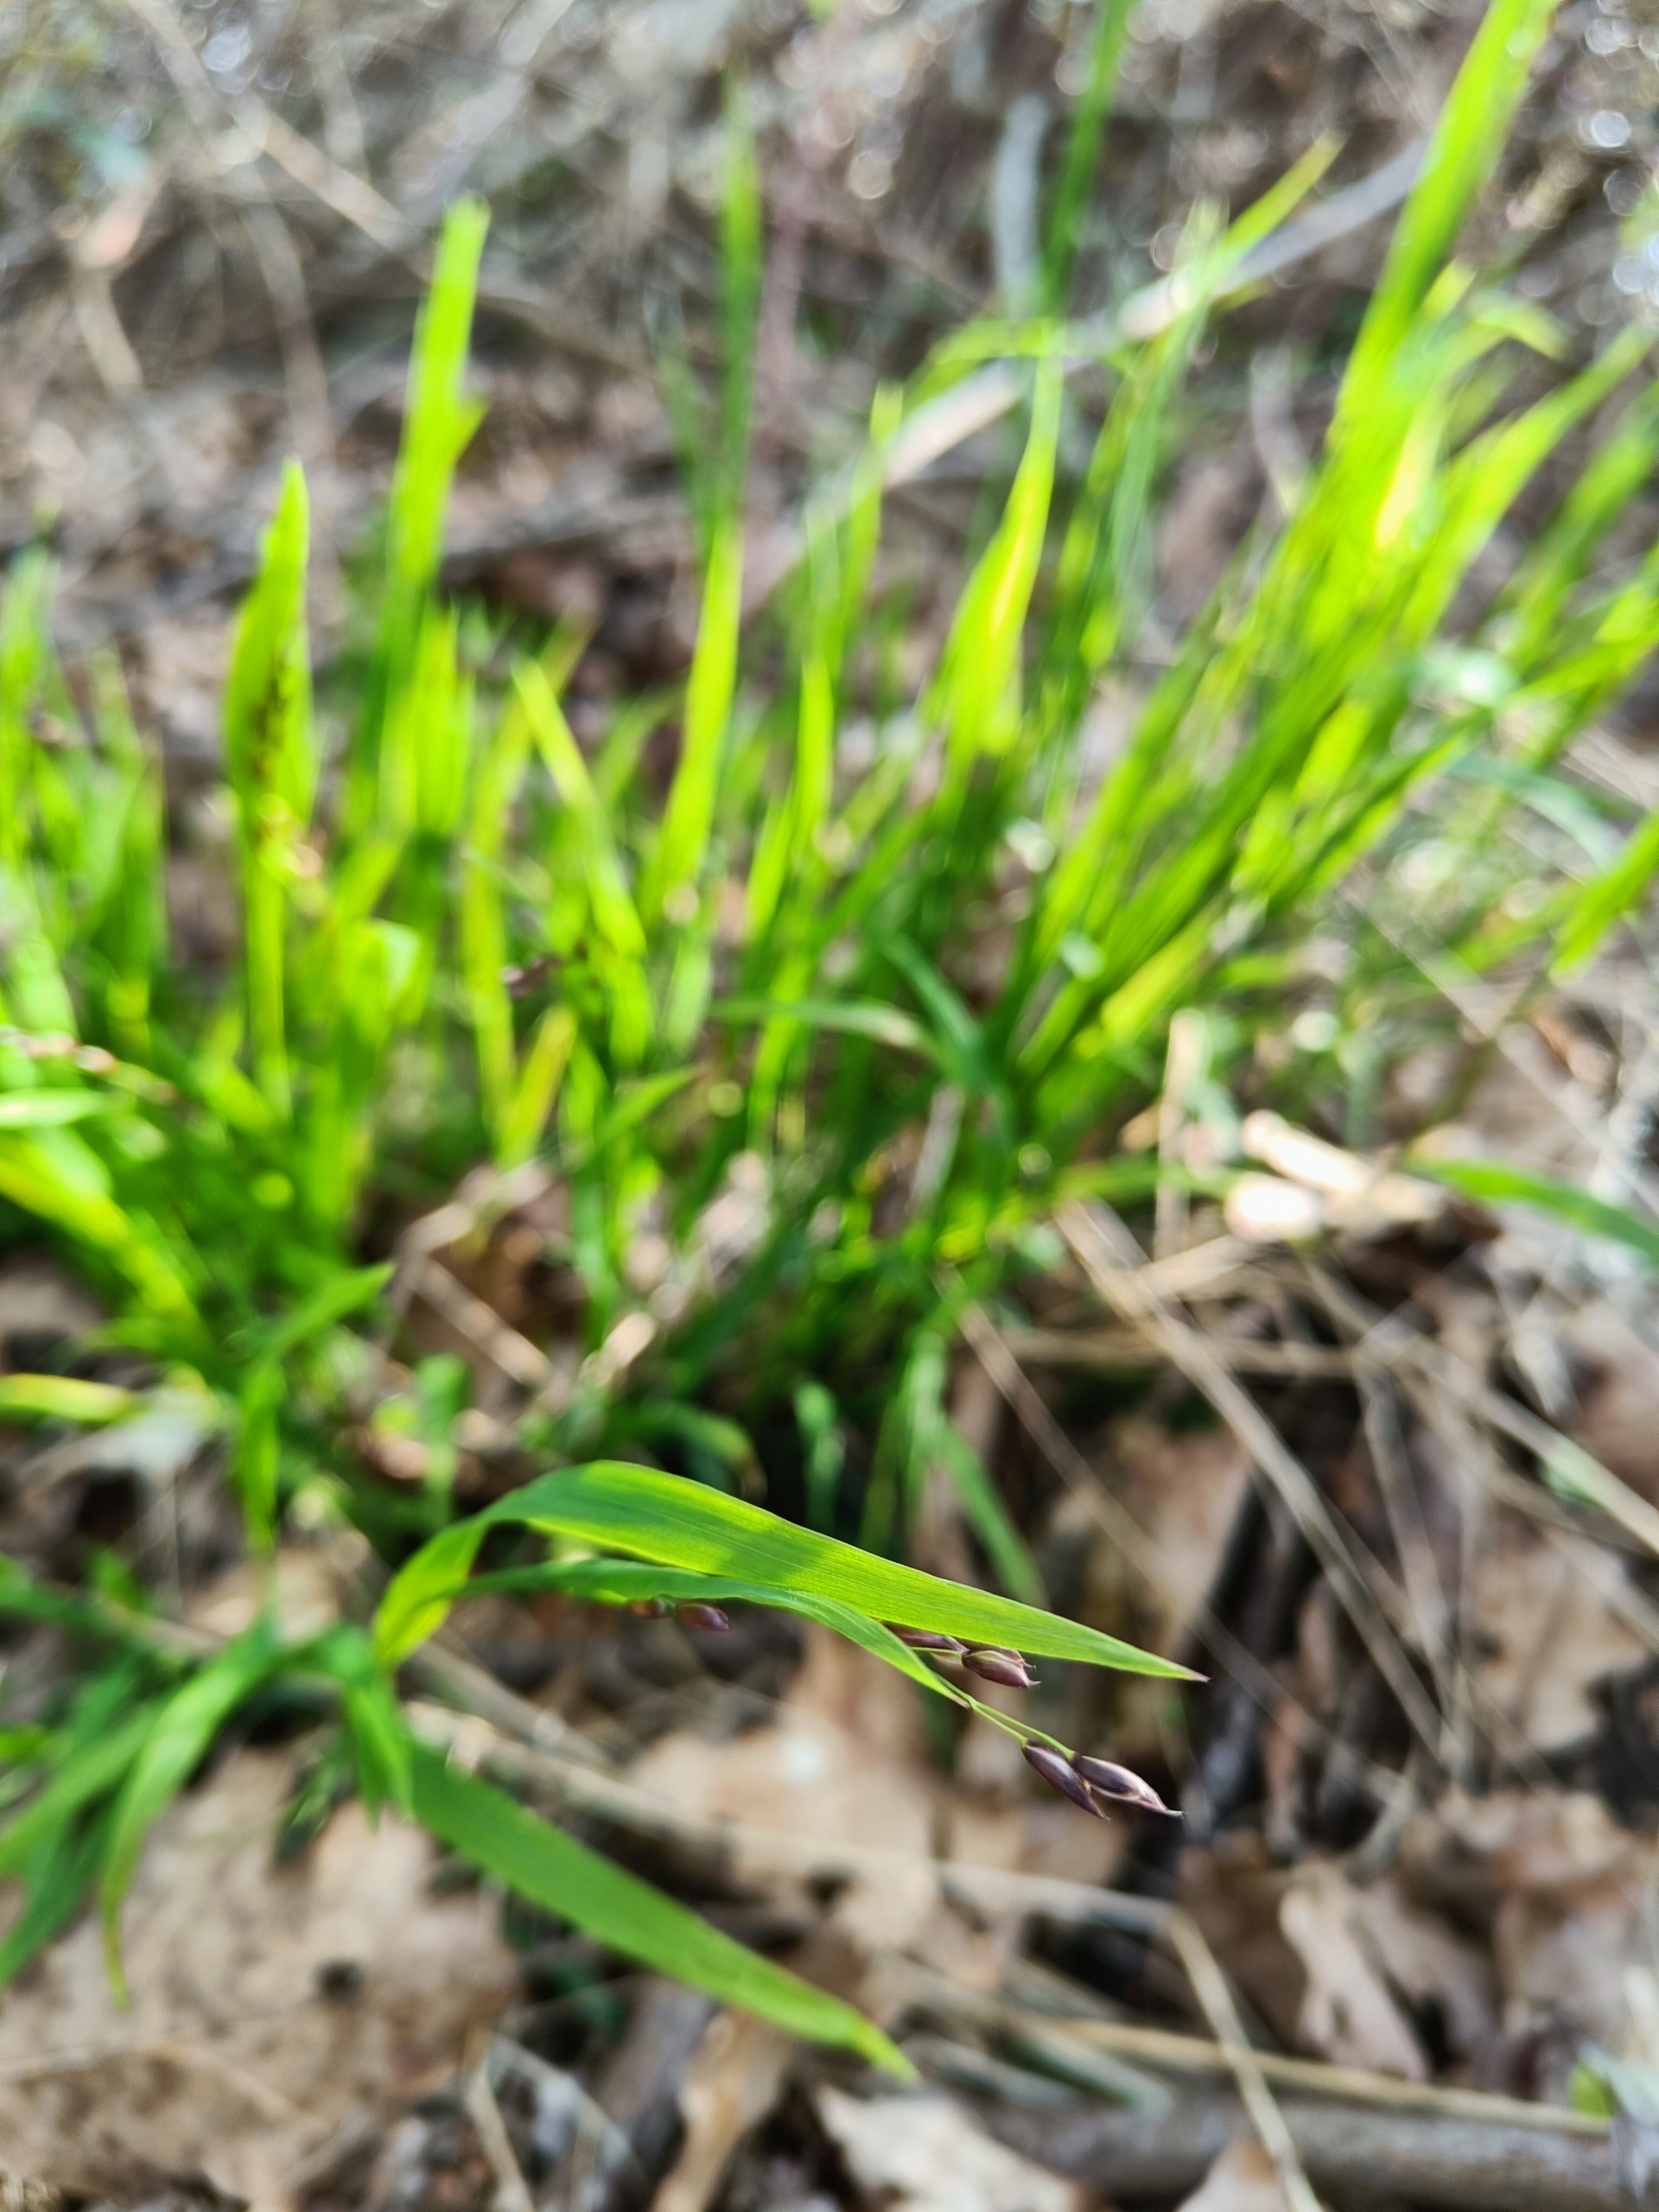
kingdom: Plantae
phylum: Tracheophyta
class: Liliopsida
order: Poales
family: Poaceae
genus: Melica
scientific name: Melica uniflora
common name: Enblomstret flitteraks
